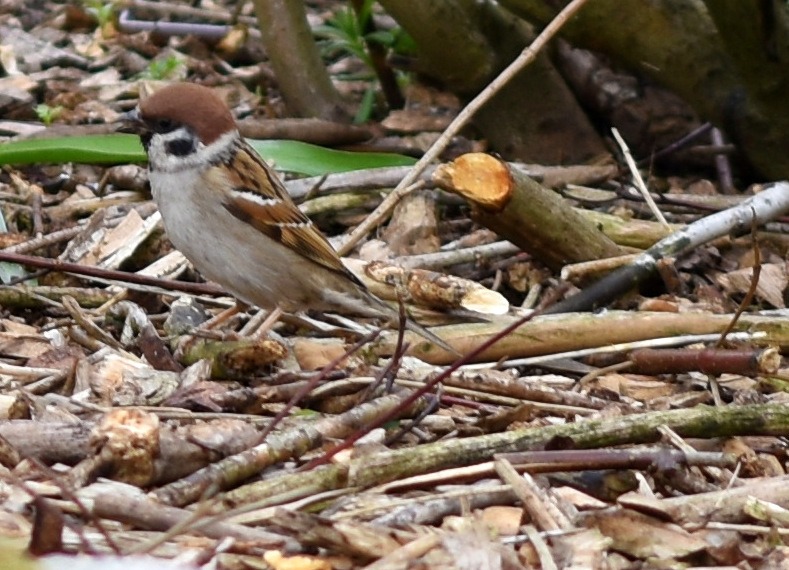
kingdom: Animalia
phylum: Chordata
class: Aves
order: Passeriformes
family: Passeridae
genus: Passer
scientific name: Passer montanus
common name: Skovspurv
